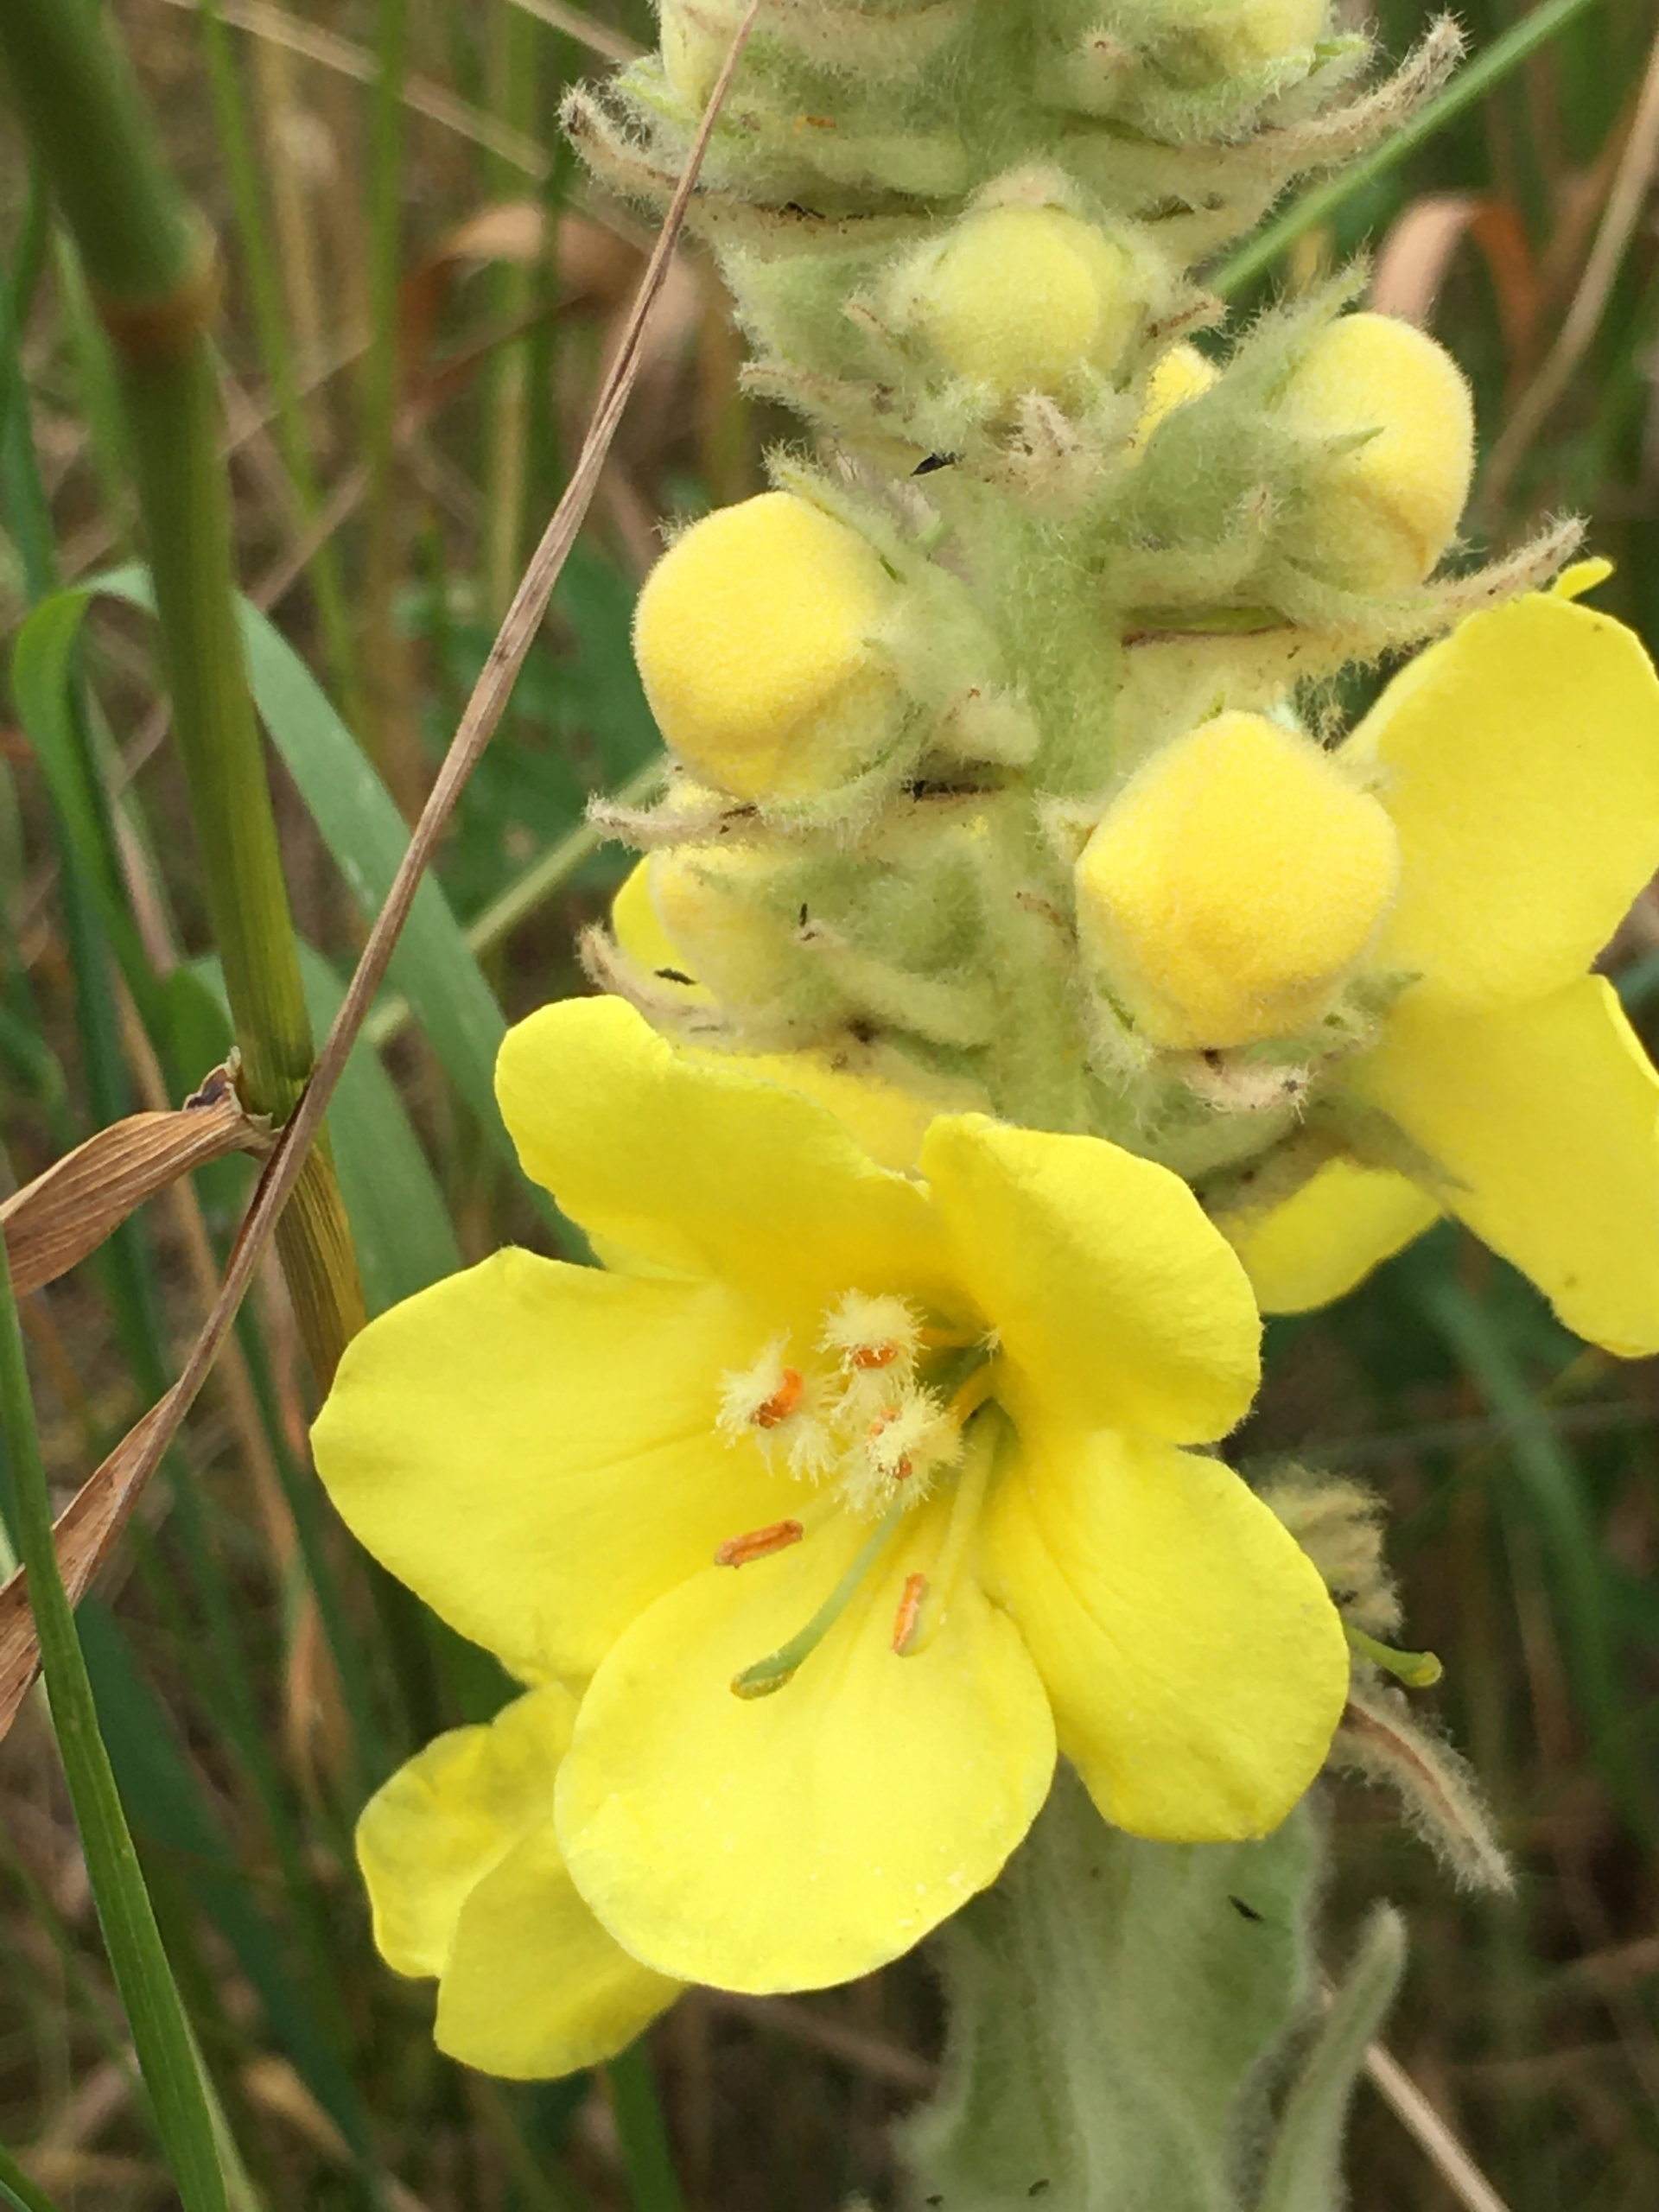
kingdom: Plantae
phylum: Tracheophyta
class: Magnoliopsida
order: Lamiales
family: Scrophulariaceae
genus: Verbascum
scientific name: Verbascum densiflorum
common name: Uldbladet kongelys
